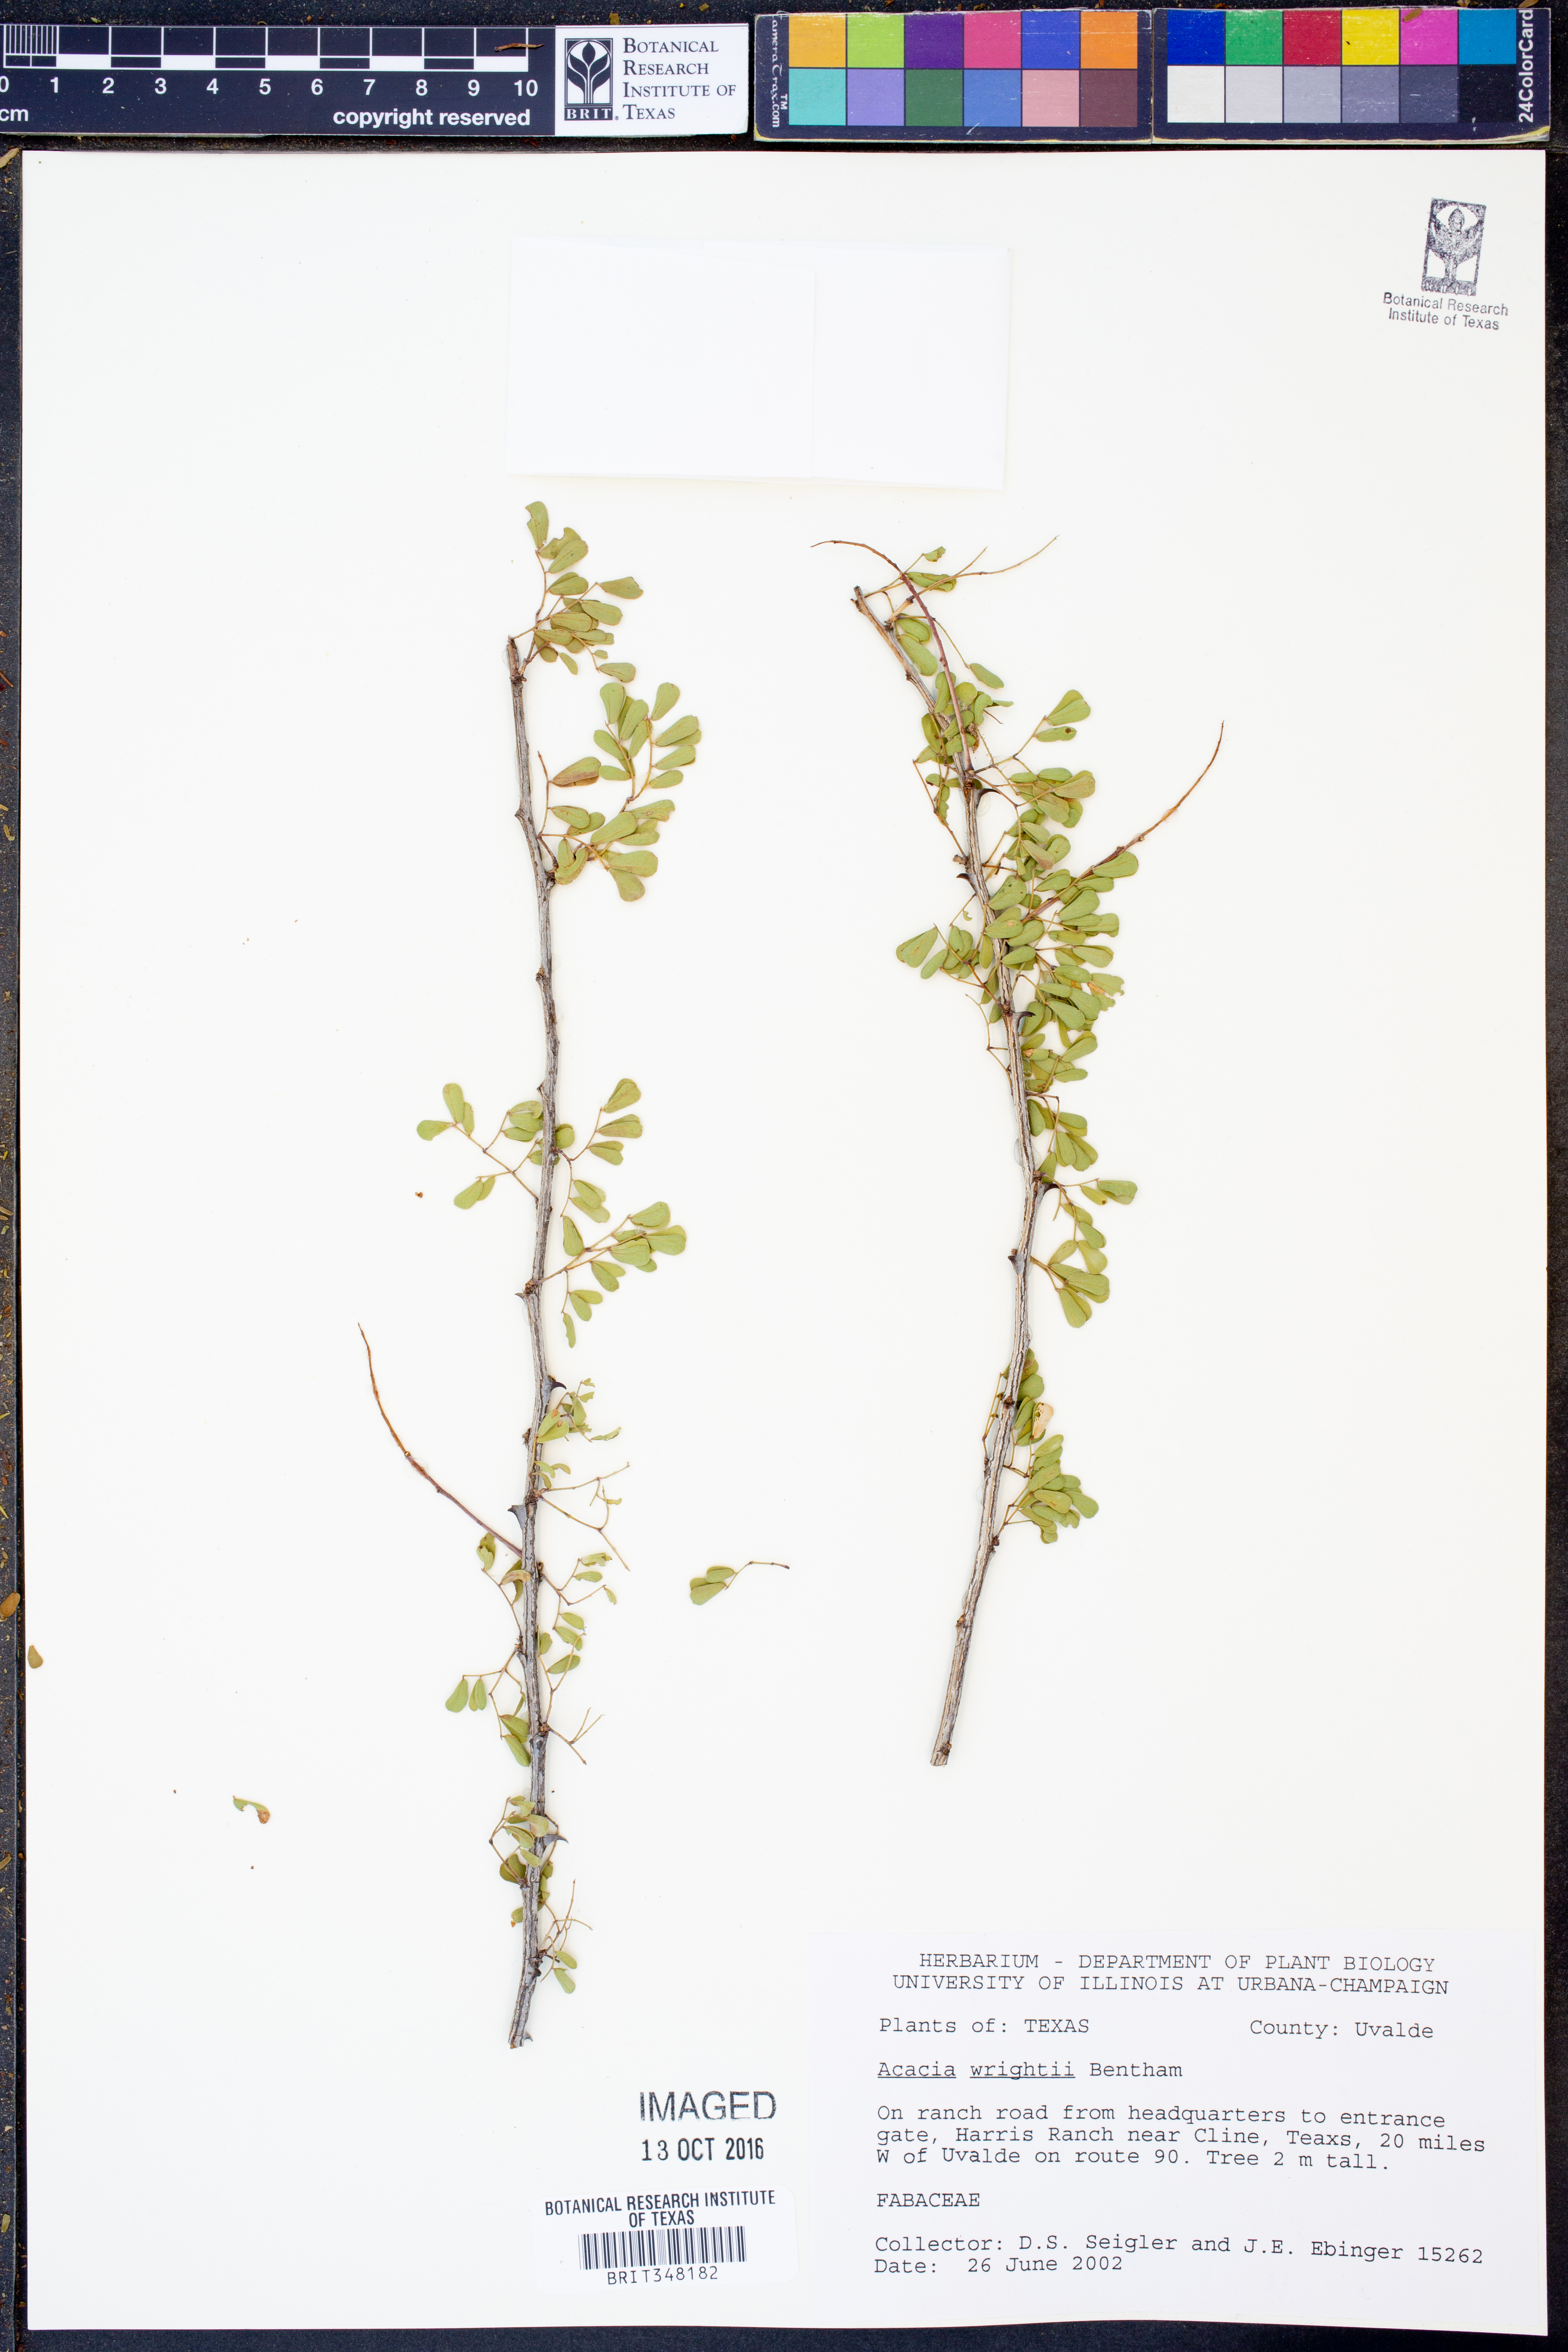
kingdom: Plantae
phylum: Tracheophyta
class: Magnoliopsida
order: Fabales
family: Fabaceae
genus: Senegalia
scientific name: Senegalia wrightii
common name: Texas cat's-claw
